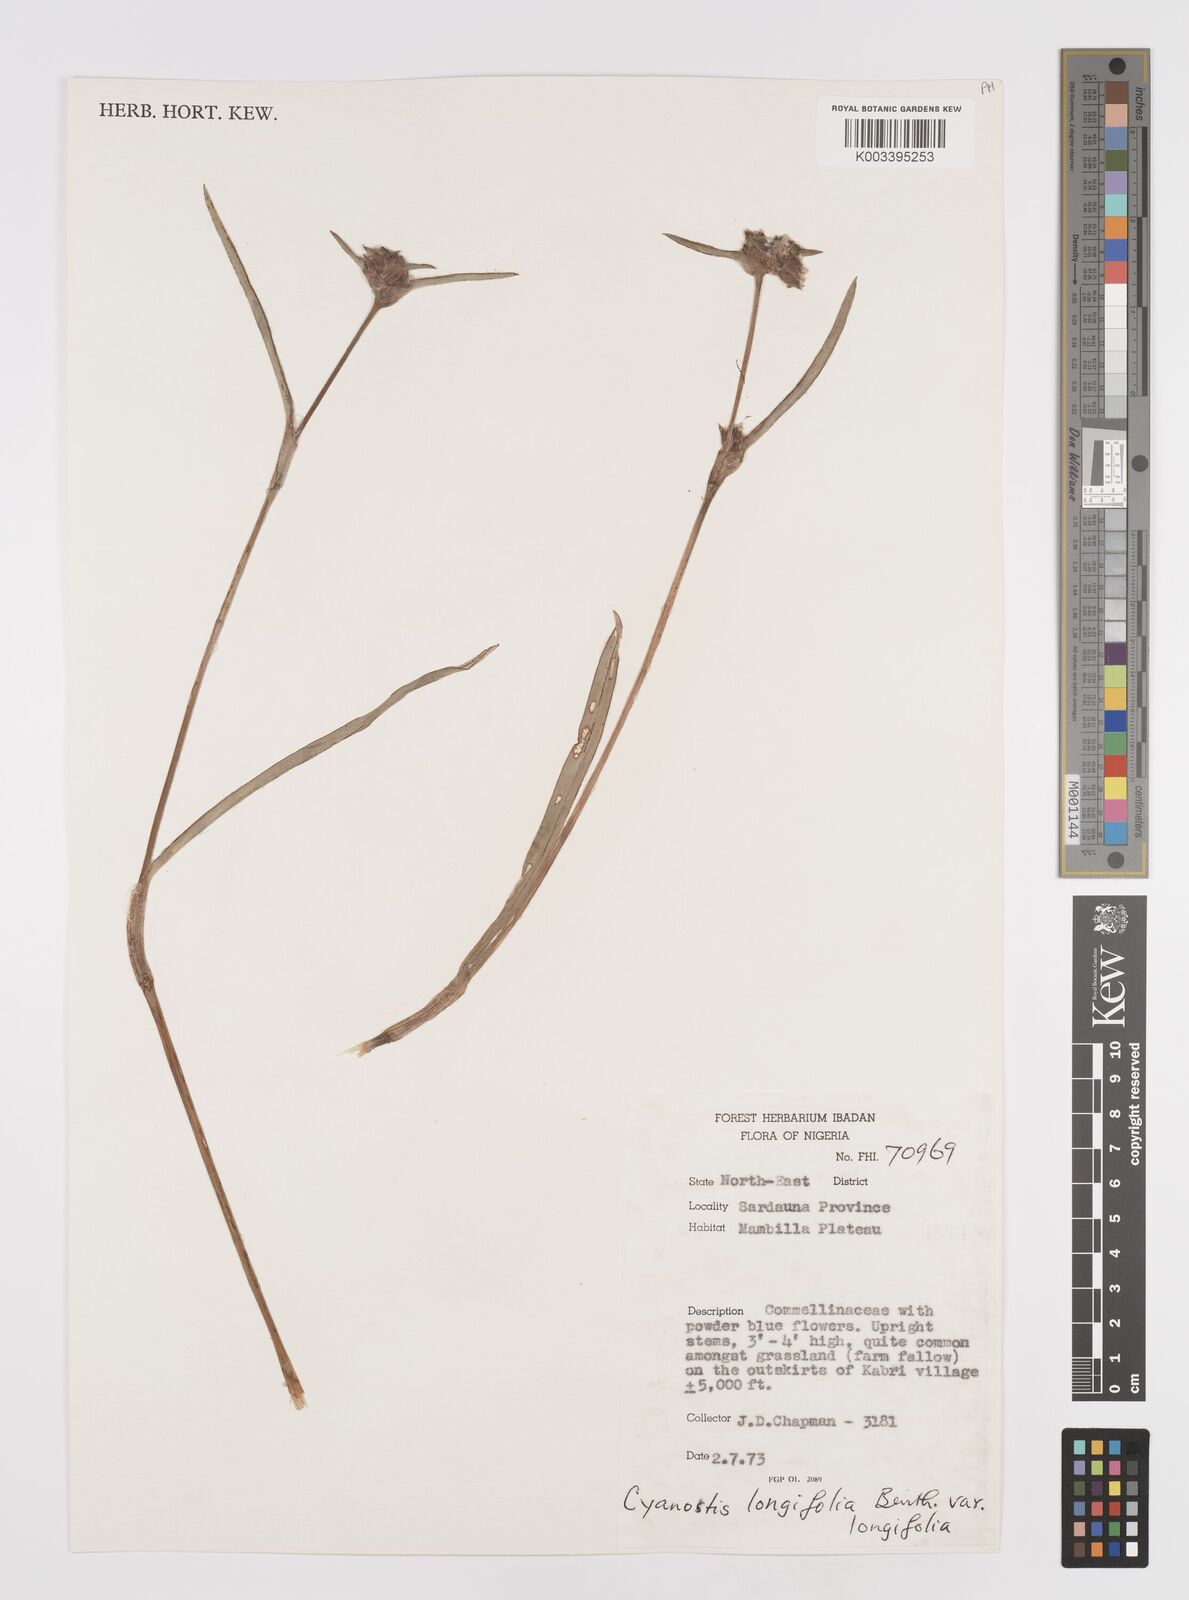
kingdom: Plantae
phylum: Tracheophyta
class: Liliopsida
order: Commelinales
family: Commelinaceae
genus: Cyanotis
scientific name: Cyanotis longifolia
